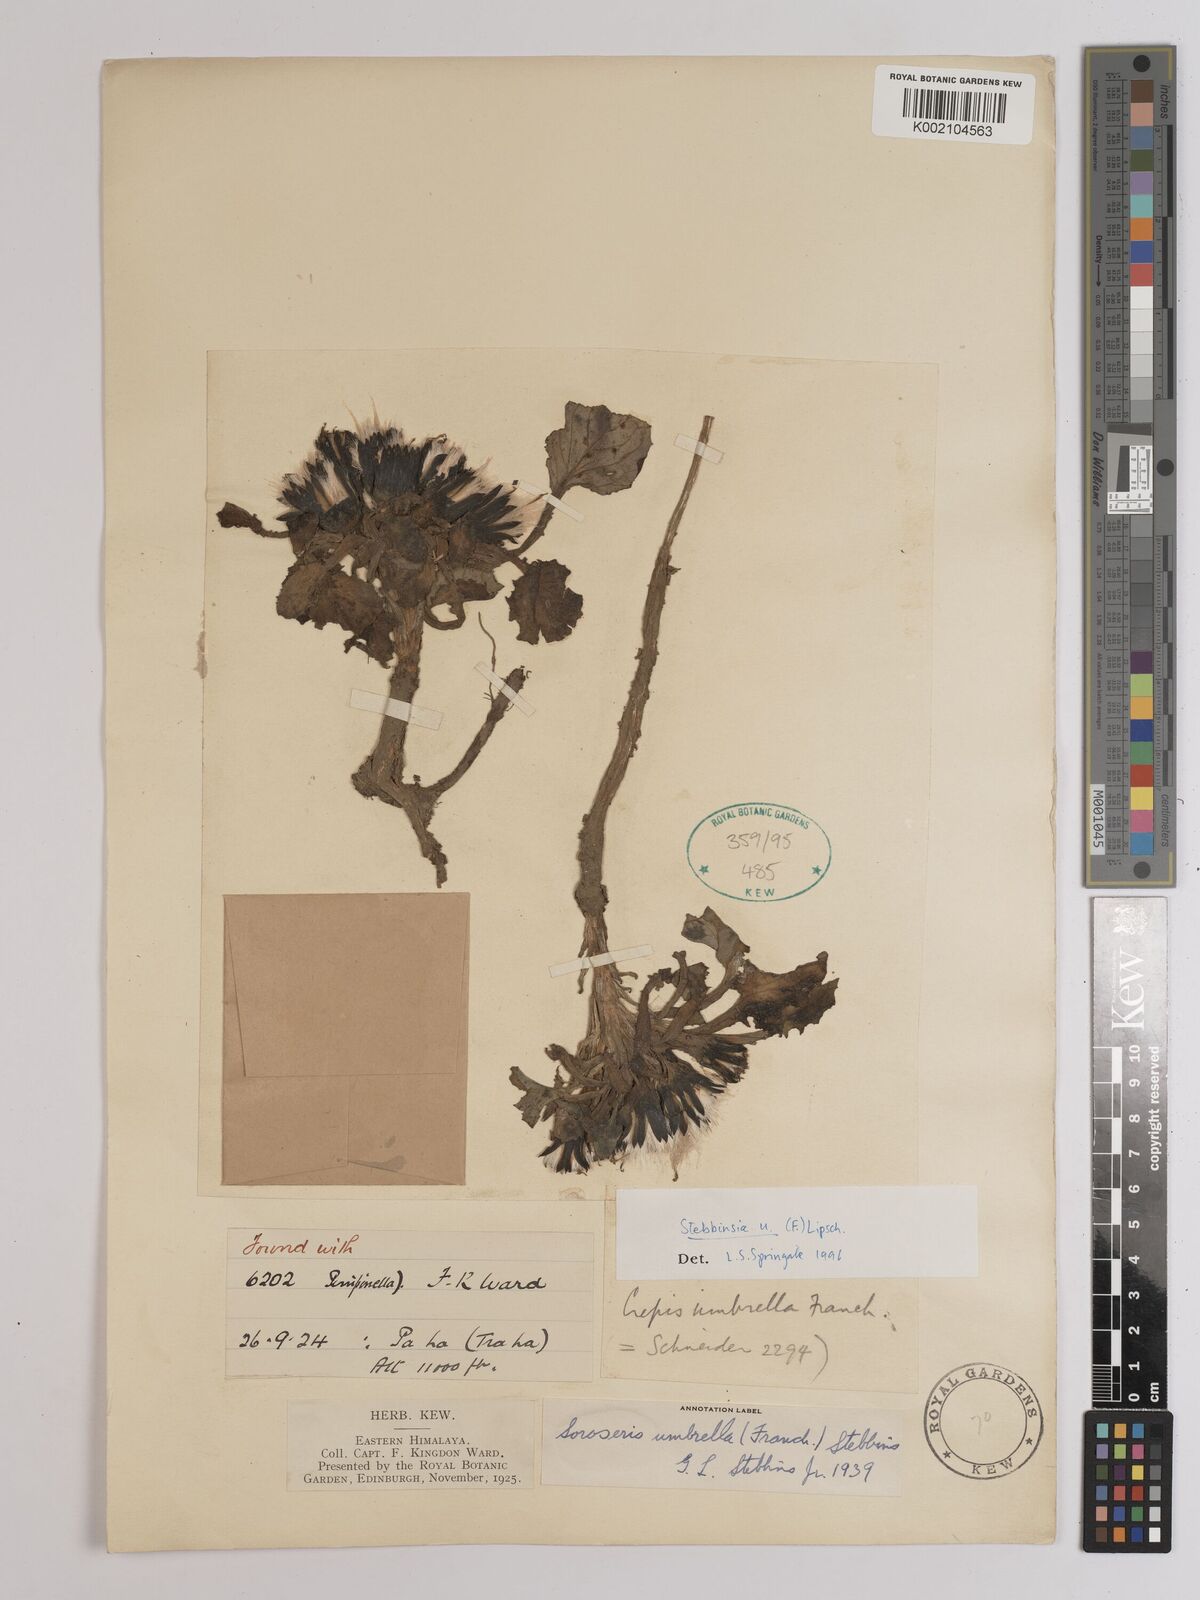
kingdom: Plantae
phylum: Tracheophyta
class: Magnoliopsida
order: Asterales
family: Asteraceae
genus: Soroseris
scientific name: Soroseris umbrella
